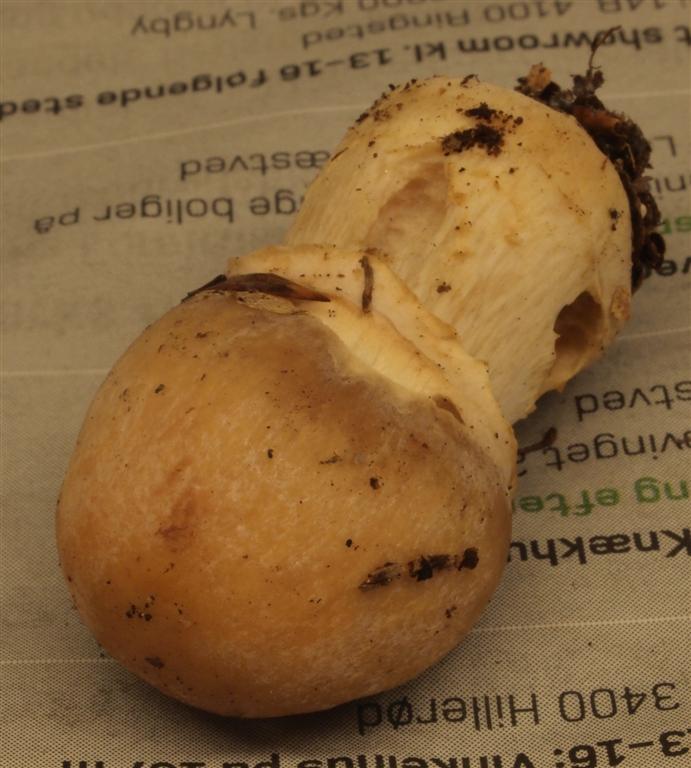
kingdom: Fungi
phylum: Basidiomycota
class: Agaricomycetes
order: Agaricales
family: Cortinariaceae
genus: Cortinarius
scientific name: Cortinarius caperatus
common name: klidhat
